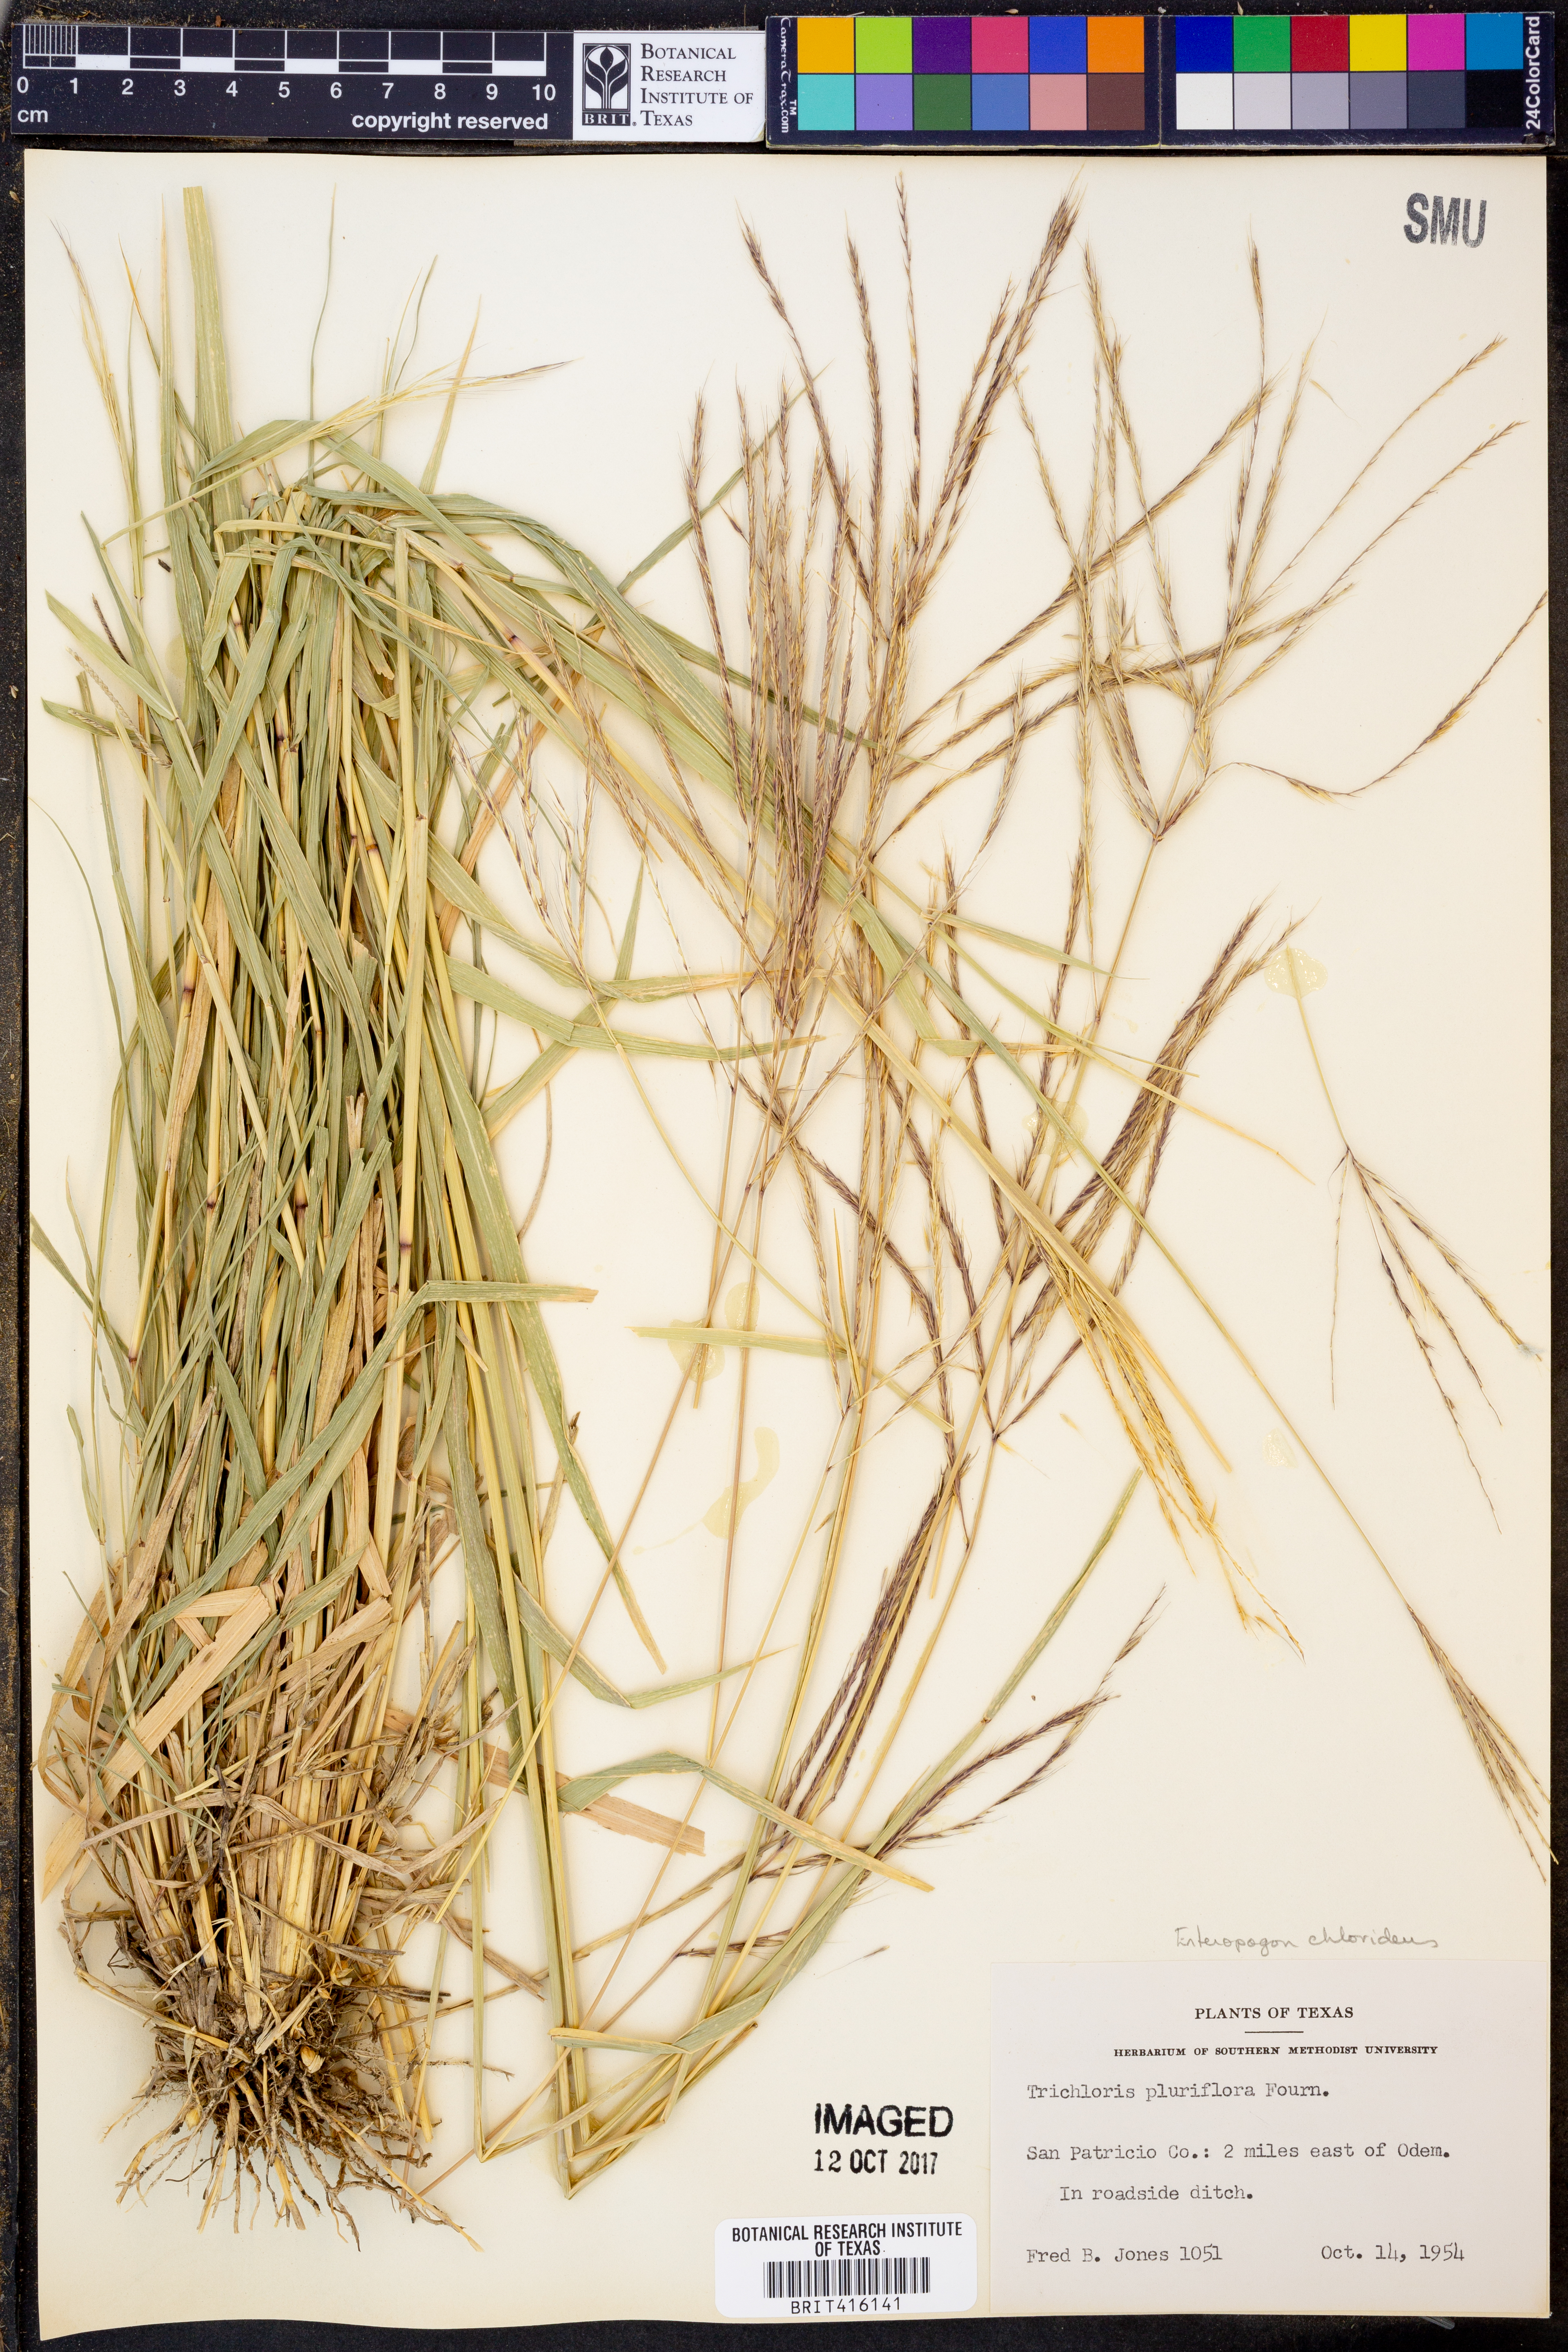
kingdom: Plantae
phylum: Tracheophyta
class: Liliopsida
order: Poales
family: Poaceae
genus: Tetrapogon
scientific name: Tetrapogon chlorideus
